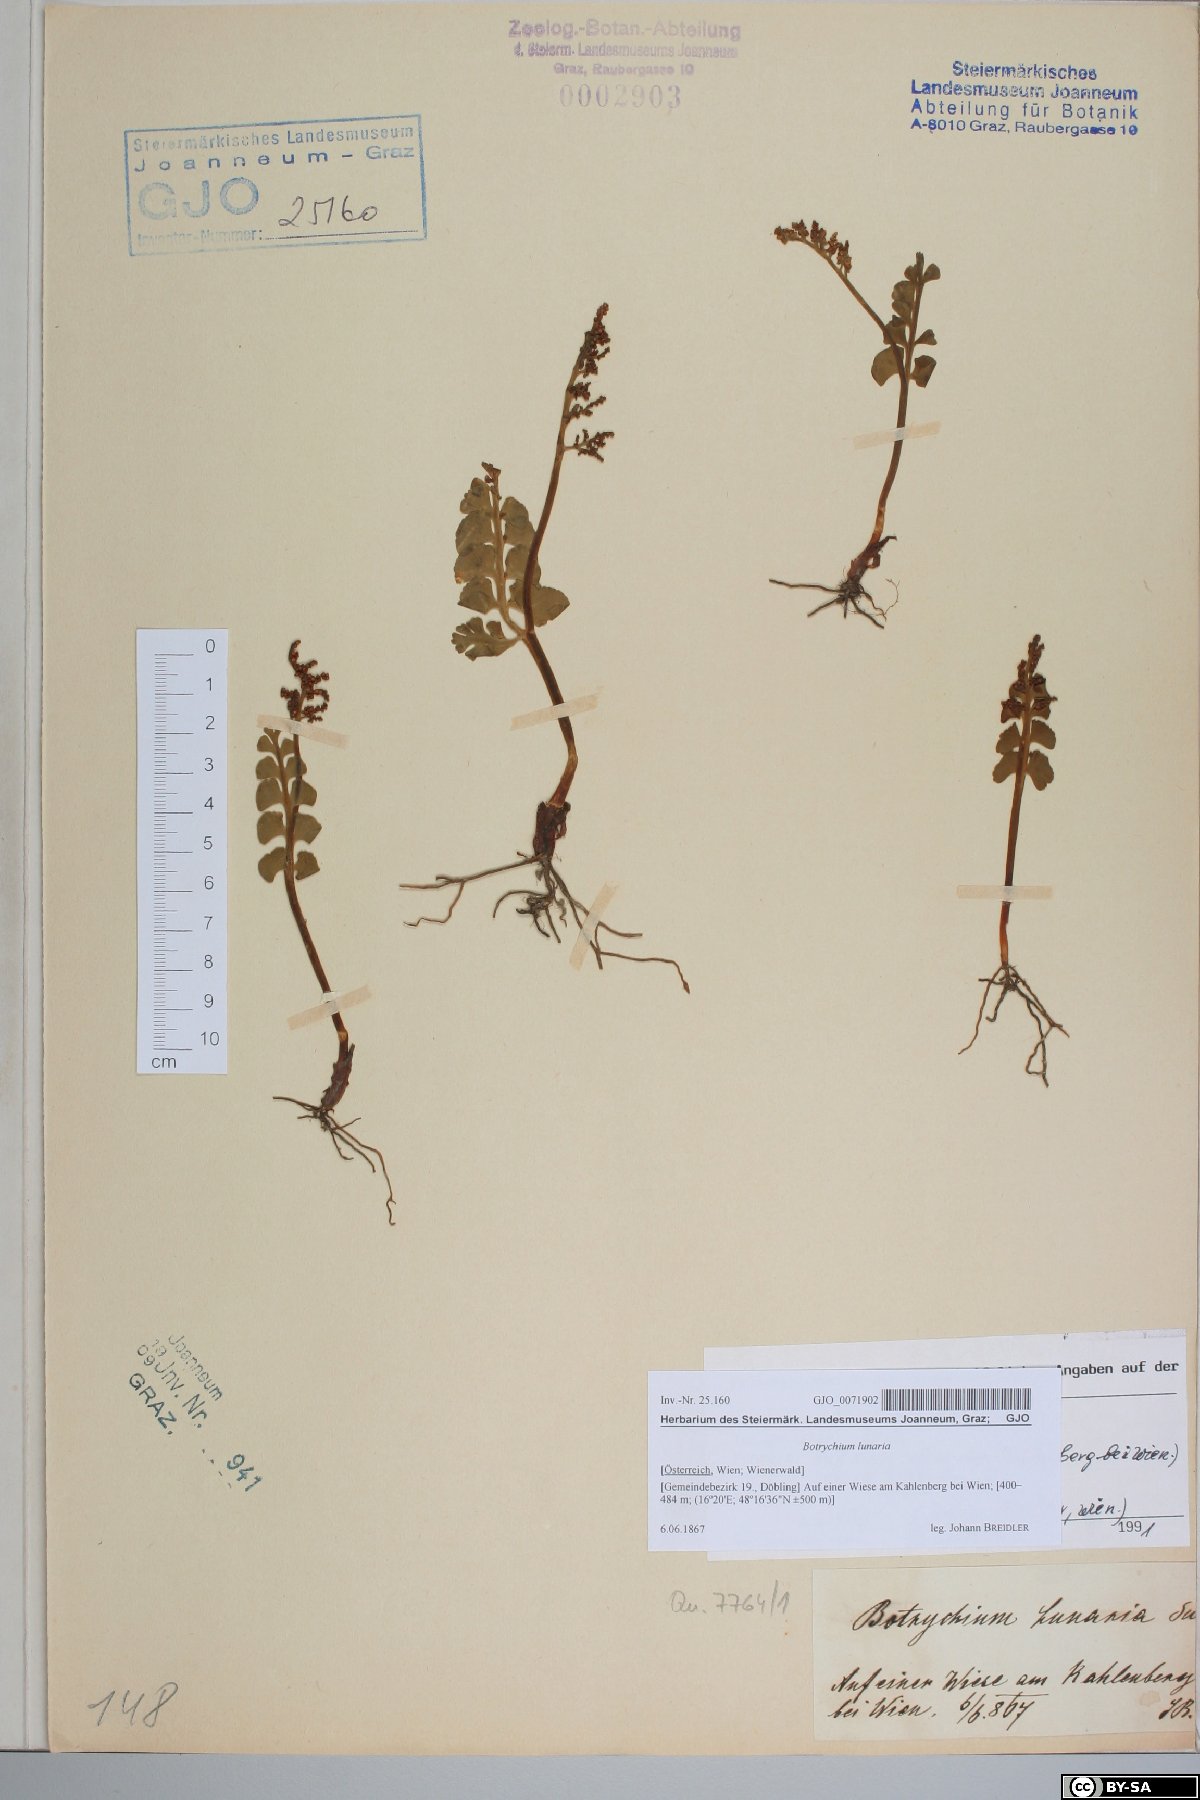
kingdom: Plantae
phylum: Tracheophyta
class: Polypodiopsida
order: Ophioglossales
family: Ophioglossaceae
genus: Botrychium
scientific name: Botrychium lunaria
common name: Moonwort
